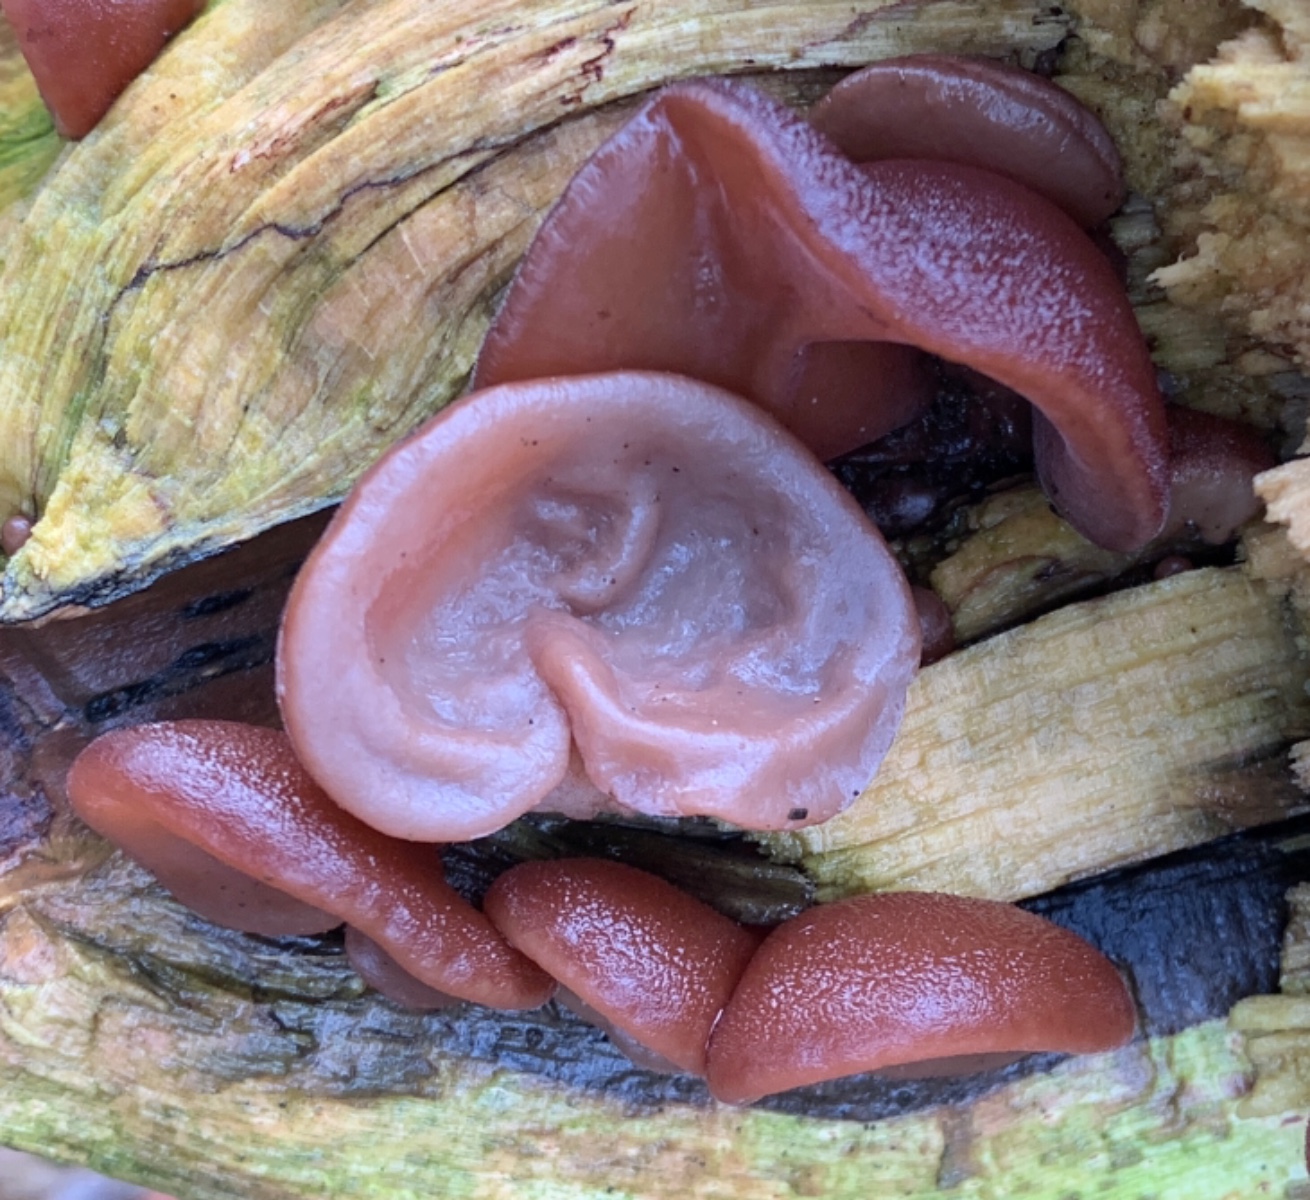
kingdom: Fungi
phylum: Basidiomycota
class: Agaricomycetes
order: Auriculariales
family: Auriculariaceae
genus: Auricularia
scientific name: Auricularia auricula-judae
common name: almindelig judasøre
